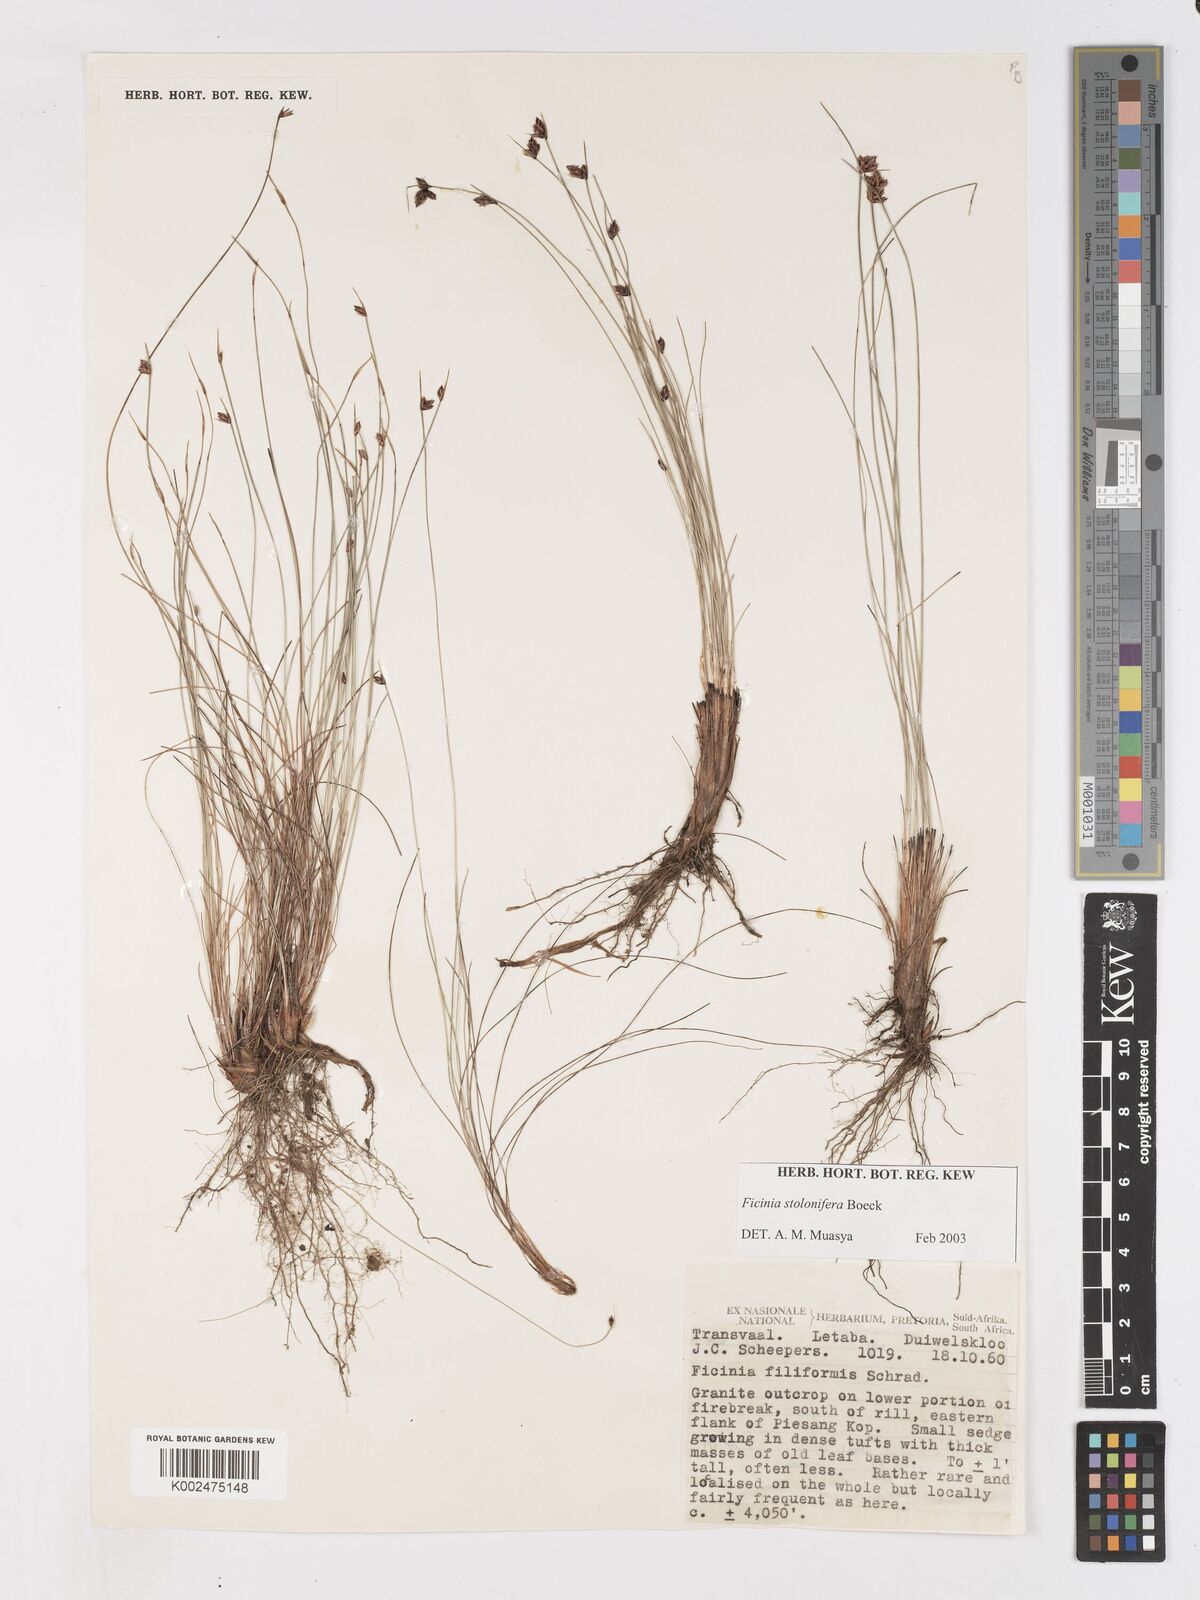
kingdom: Plantae
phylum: Tracheophyta
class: Liliopsida
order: Poales
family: Cyperaceae
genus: Ficinia
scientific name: Ficinia stolonifera
